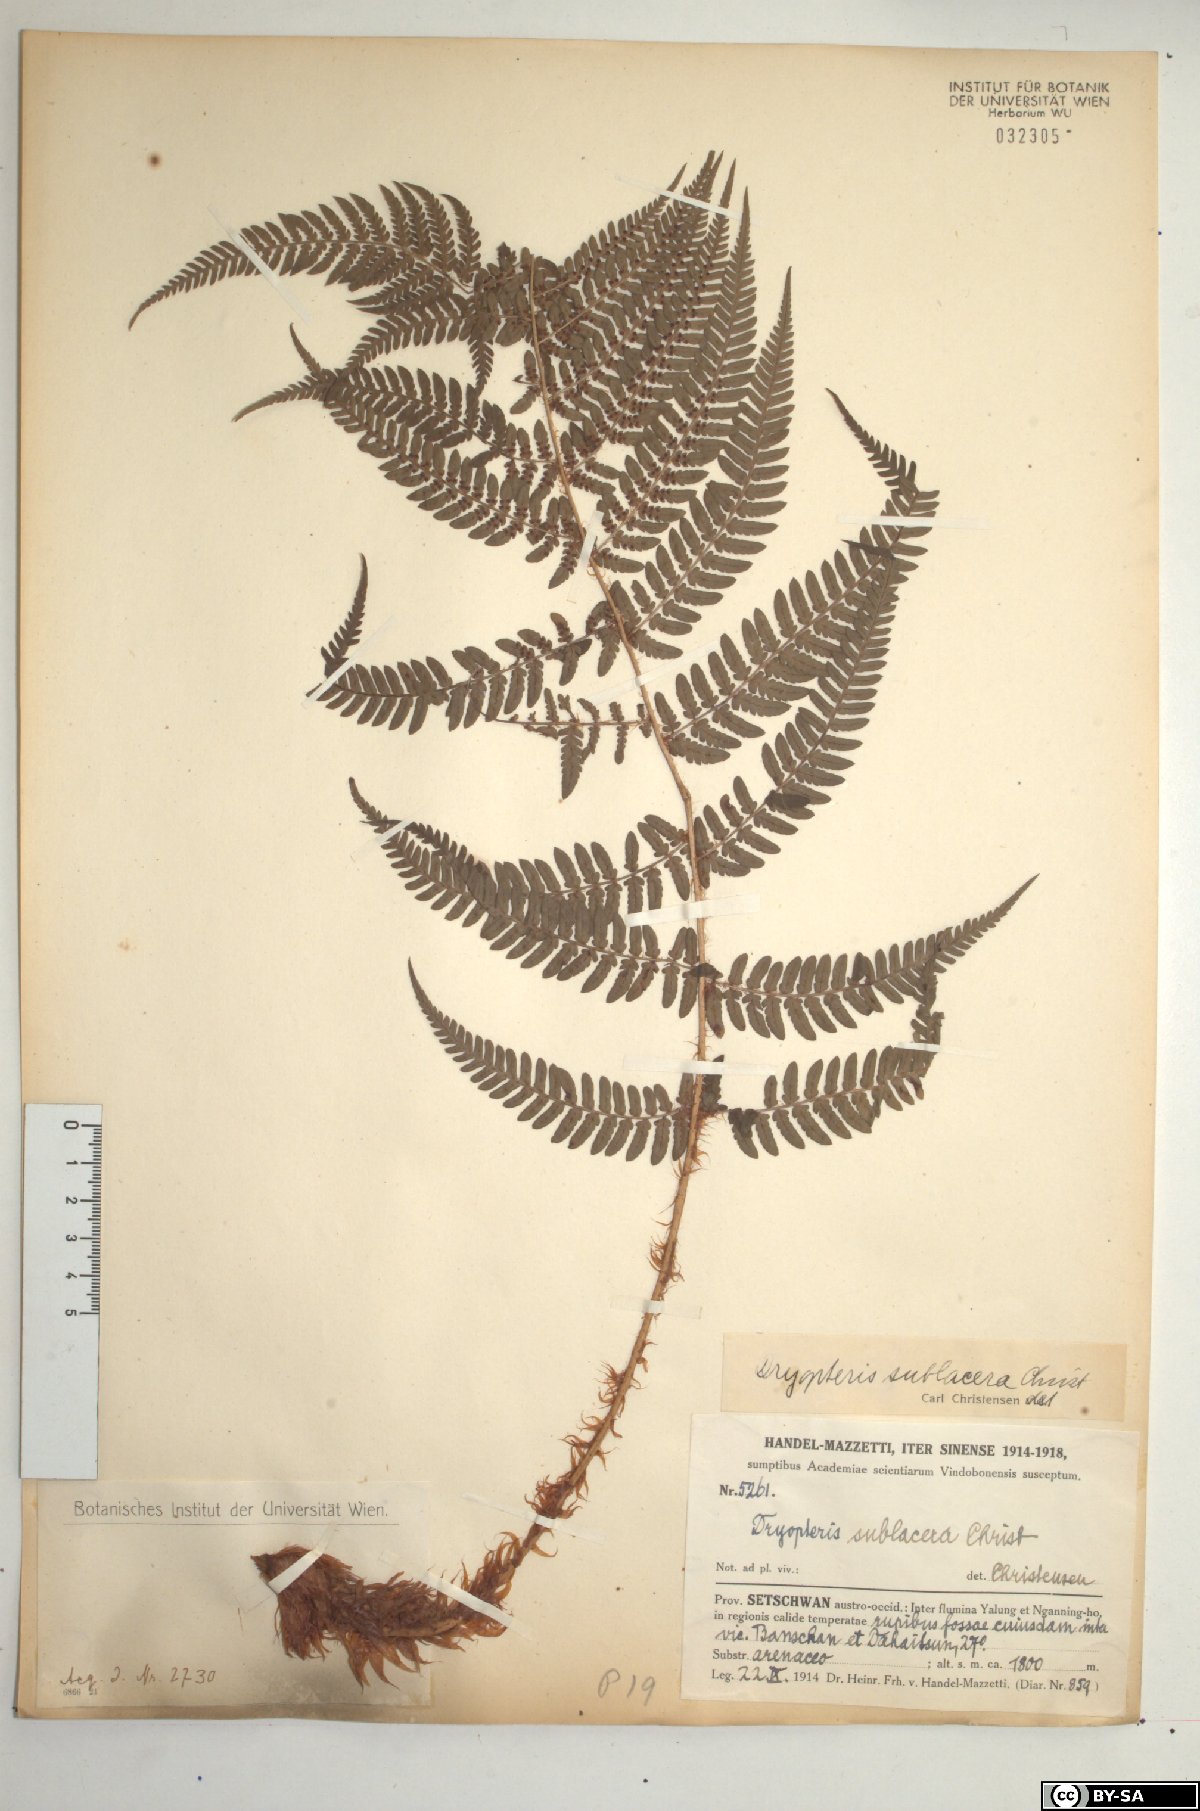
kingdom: Plantae
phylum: Tracheophyta
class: Polypodiopsida
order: Polypodiales
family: Dryopteridaceae
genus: Dryopteris
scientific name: Dryopteris sublacera
